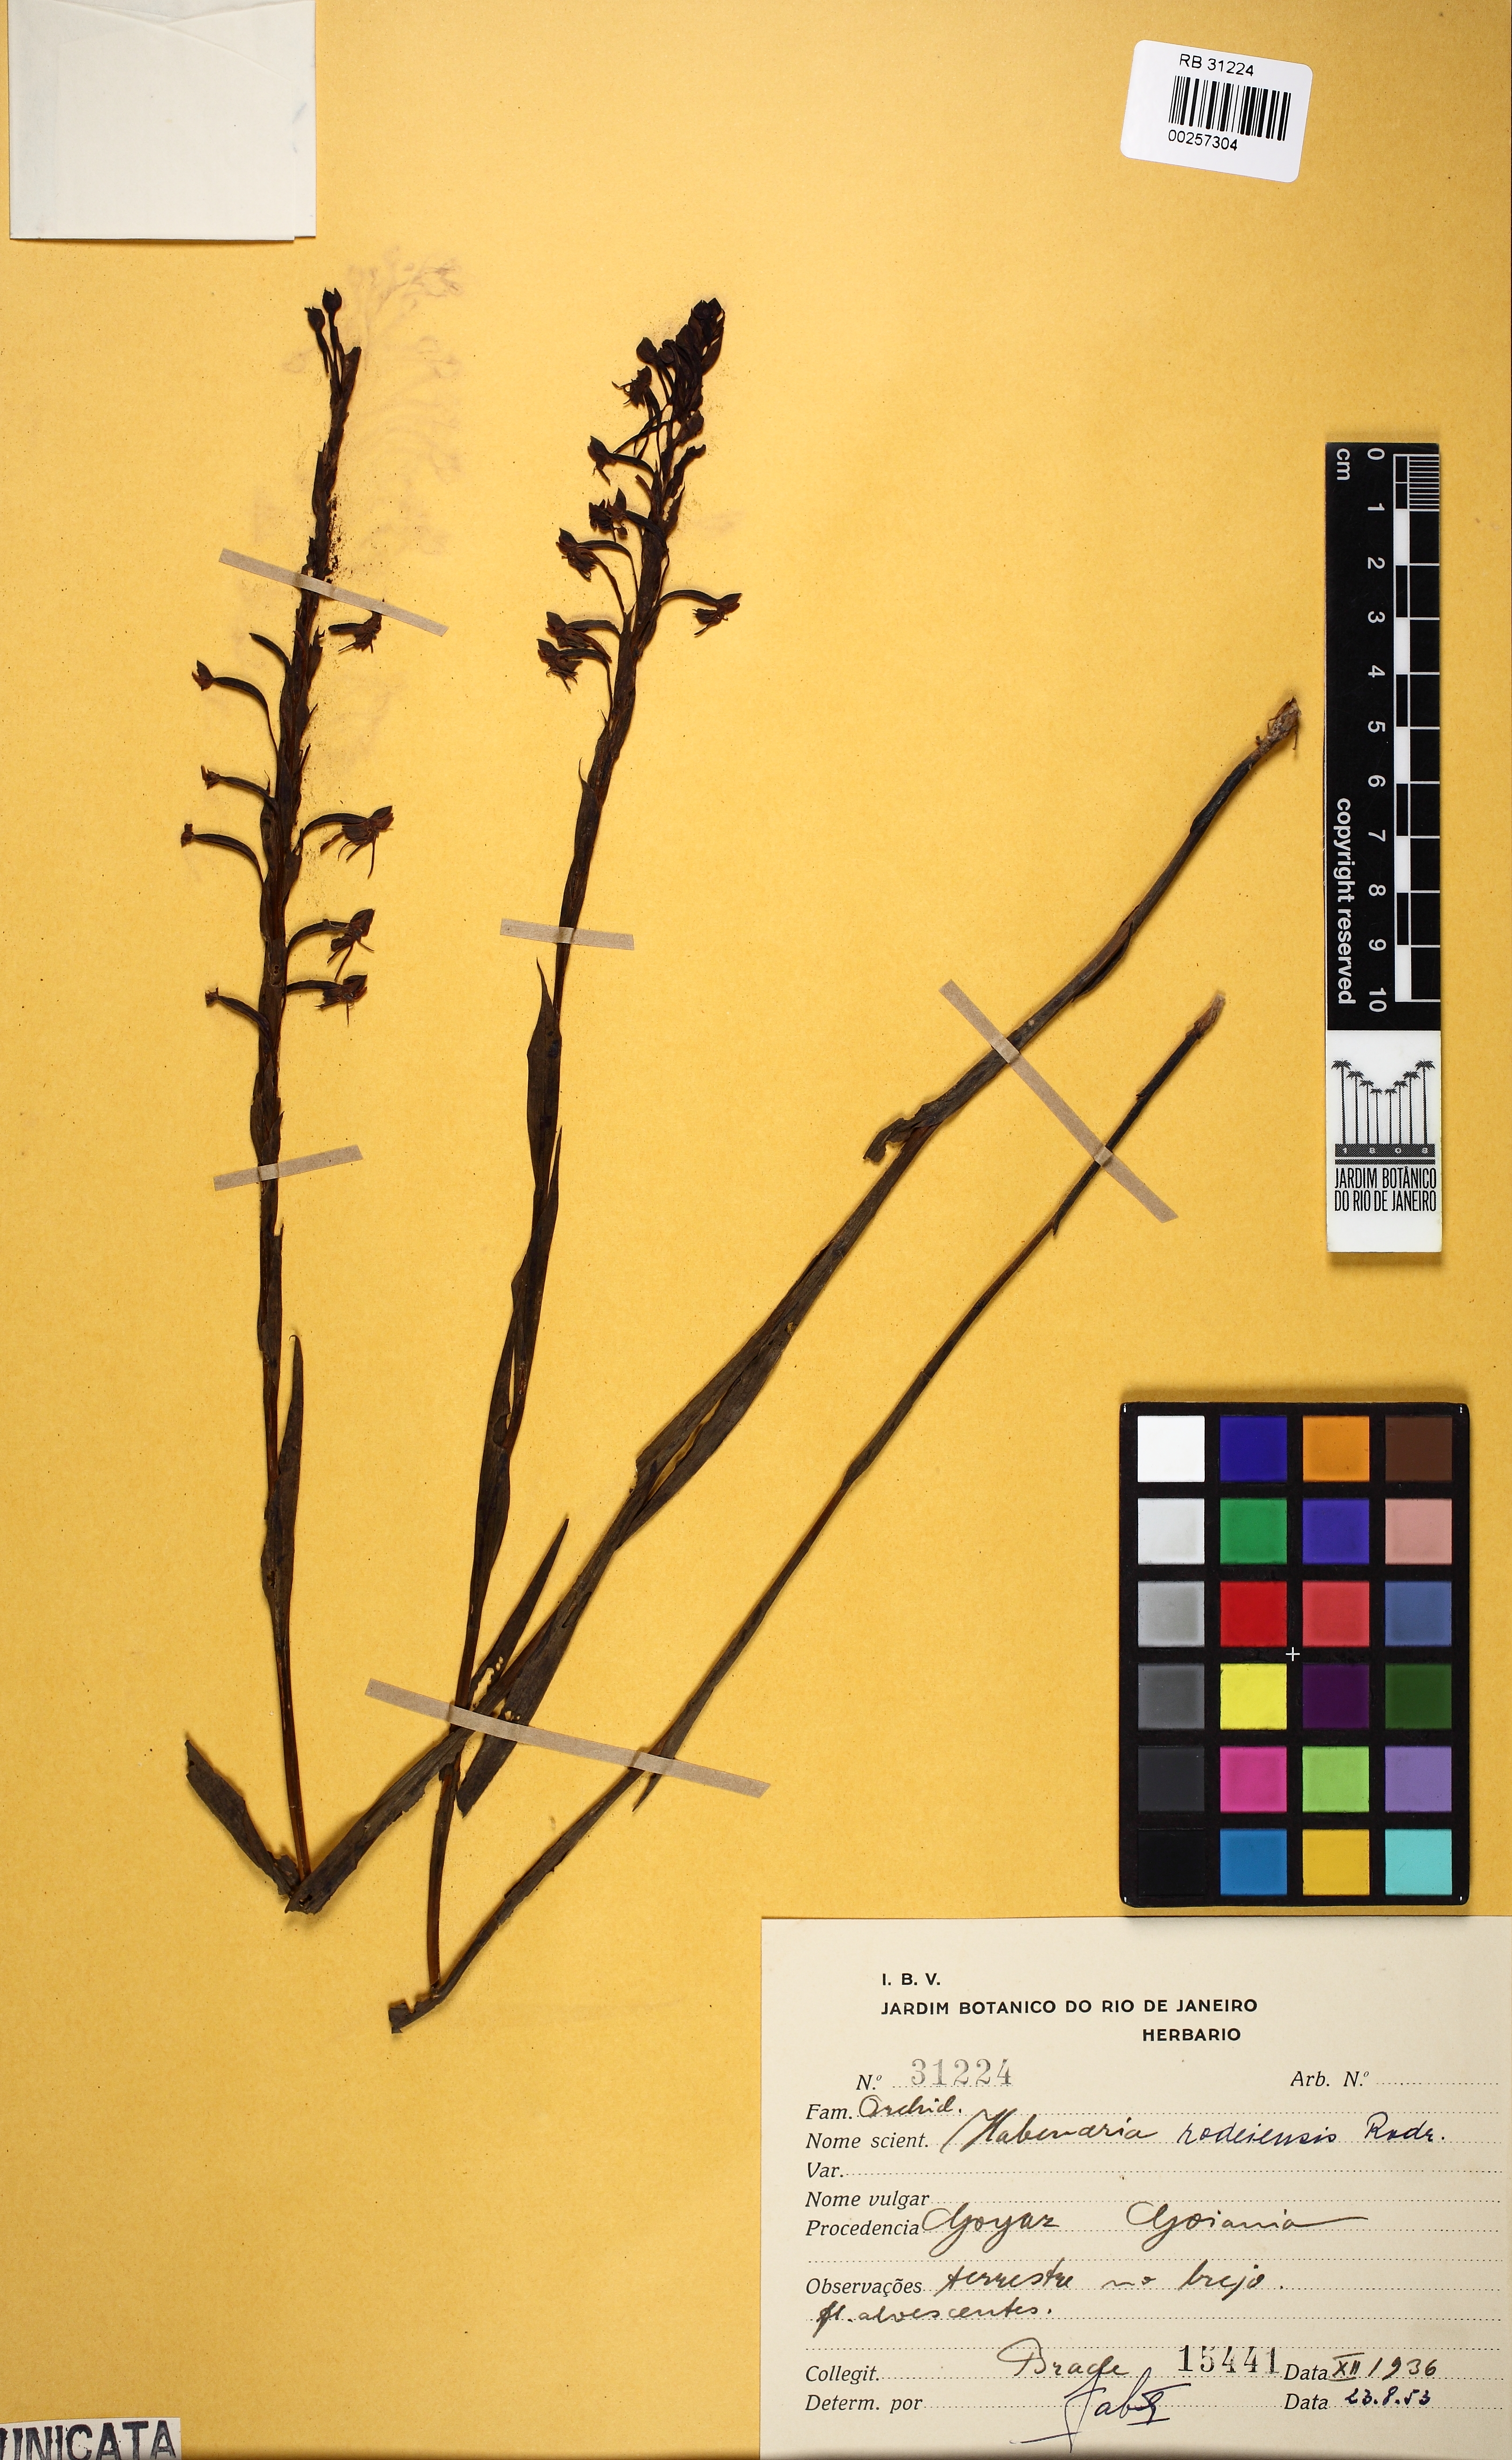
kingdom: Plantae
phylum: Tracheophyta
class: Liliopsida
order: Asparagales
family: Orchidaceae
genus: Habenaria
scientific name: Habenaria rodeiensis
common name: Bog orchid
